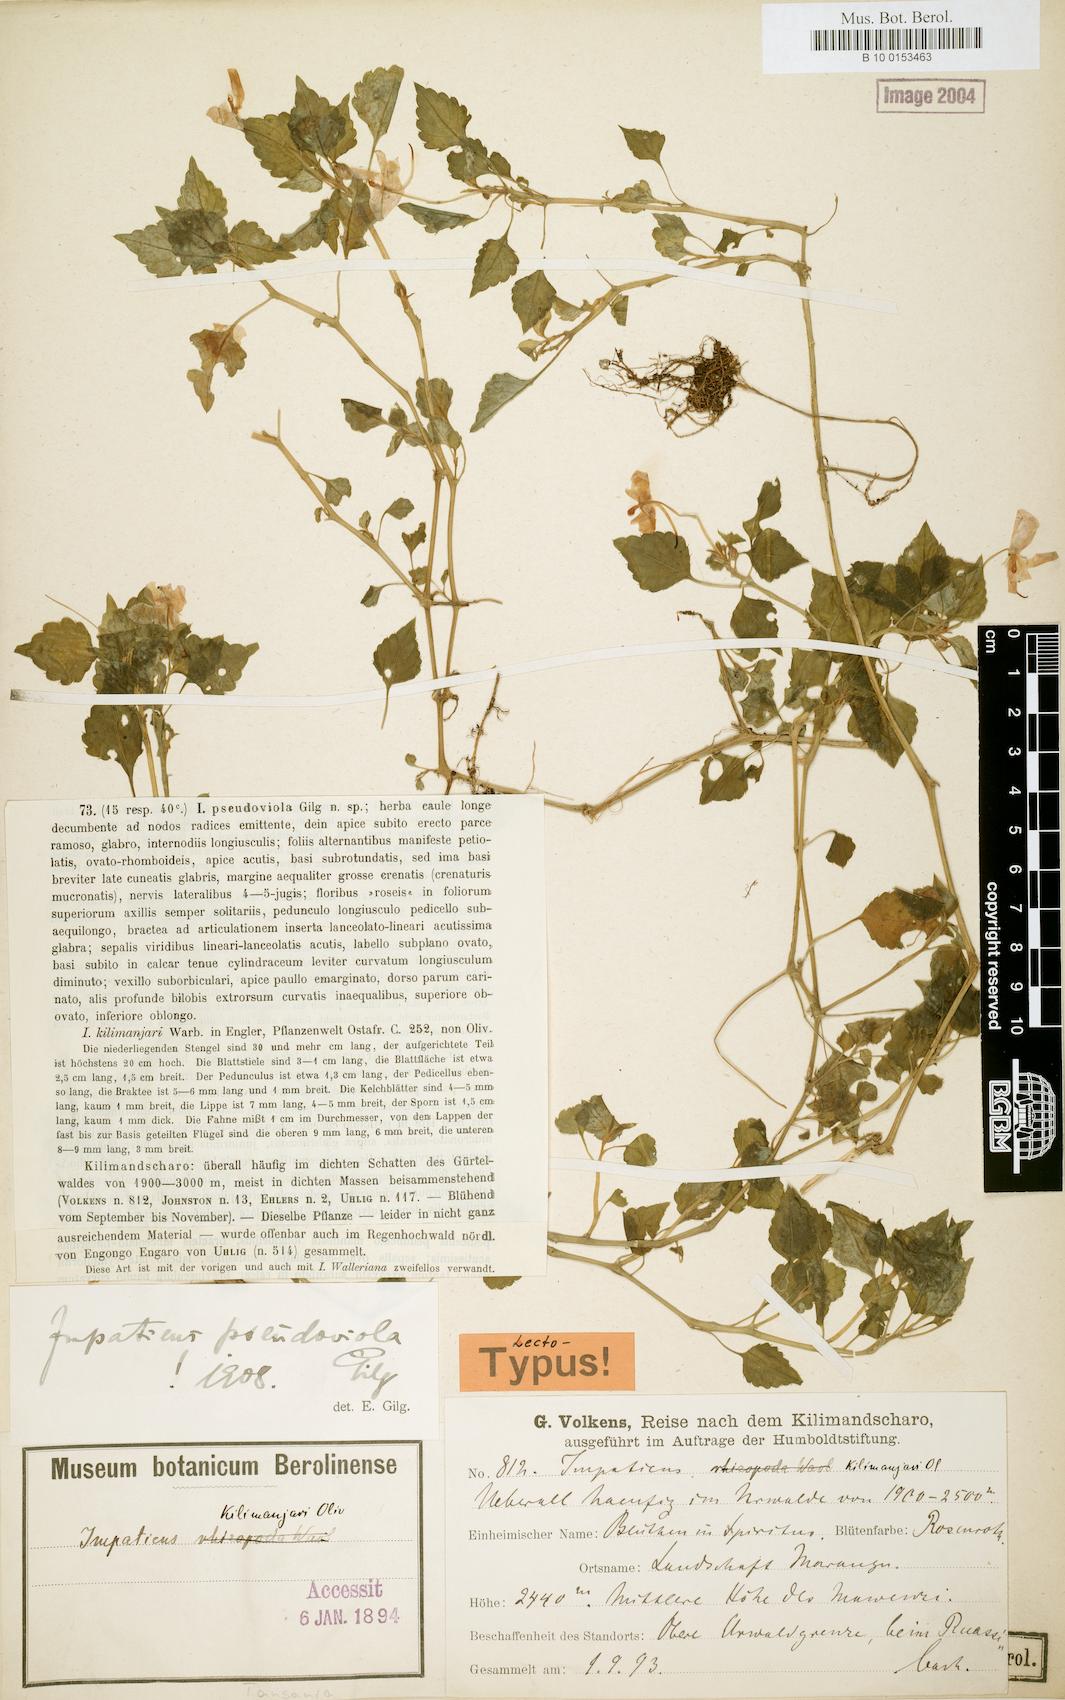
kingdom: Plantae
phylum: Tracheophyta
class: Magnoliopsida
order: Ericales
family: Balsaminaceae
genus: Impatiens
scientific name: Impatiens pseudoviola
